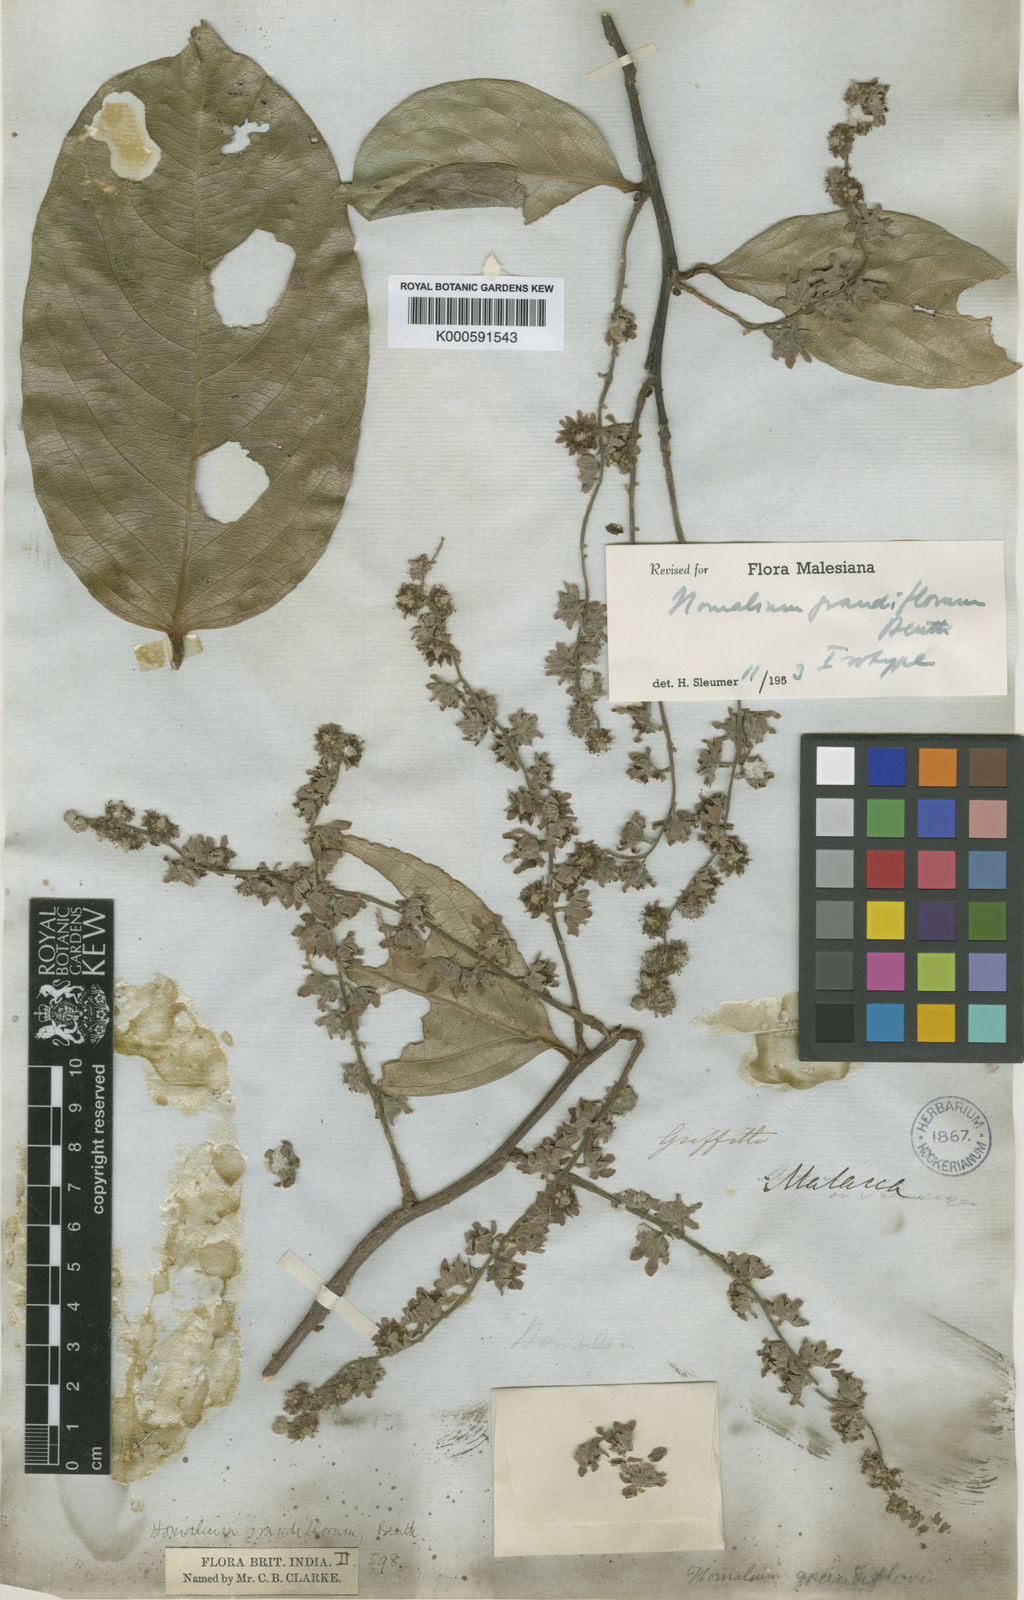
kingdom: Plantae
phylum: Tracheophyta
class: Magnoliopsida
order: Malpighiales
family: Salicaceae
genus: Homalium
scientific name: Homalium grandiflorum
